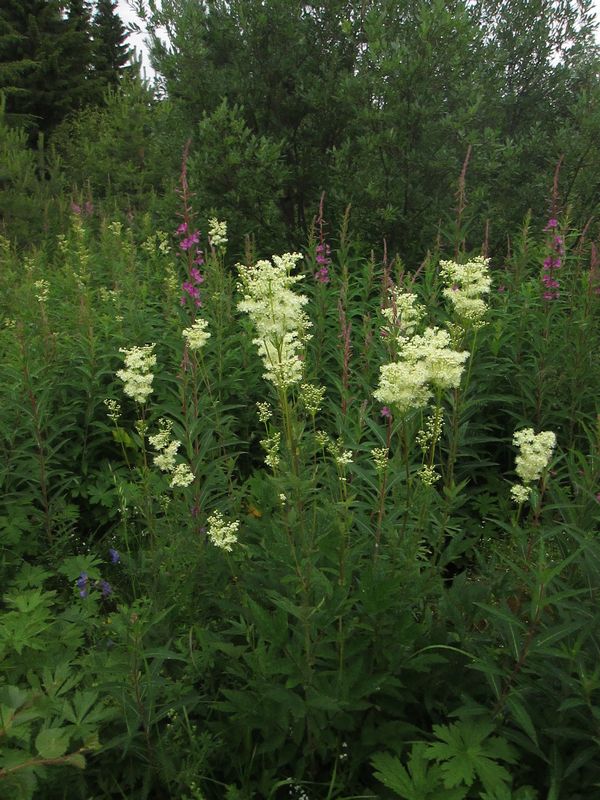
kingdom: Plantae
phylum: Tracheophyta
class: Magnoliopsida
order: Rosales
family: Rosaceae
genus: Filipendula
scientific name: Filipendula ulmaria
